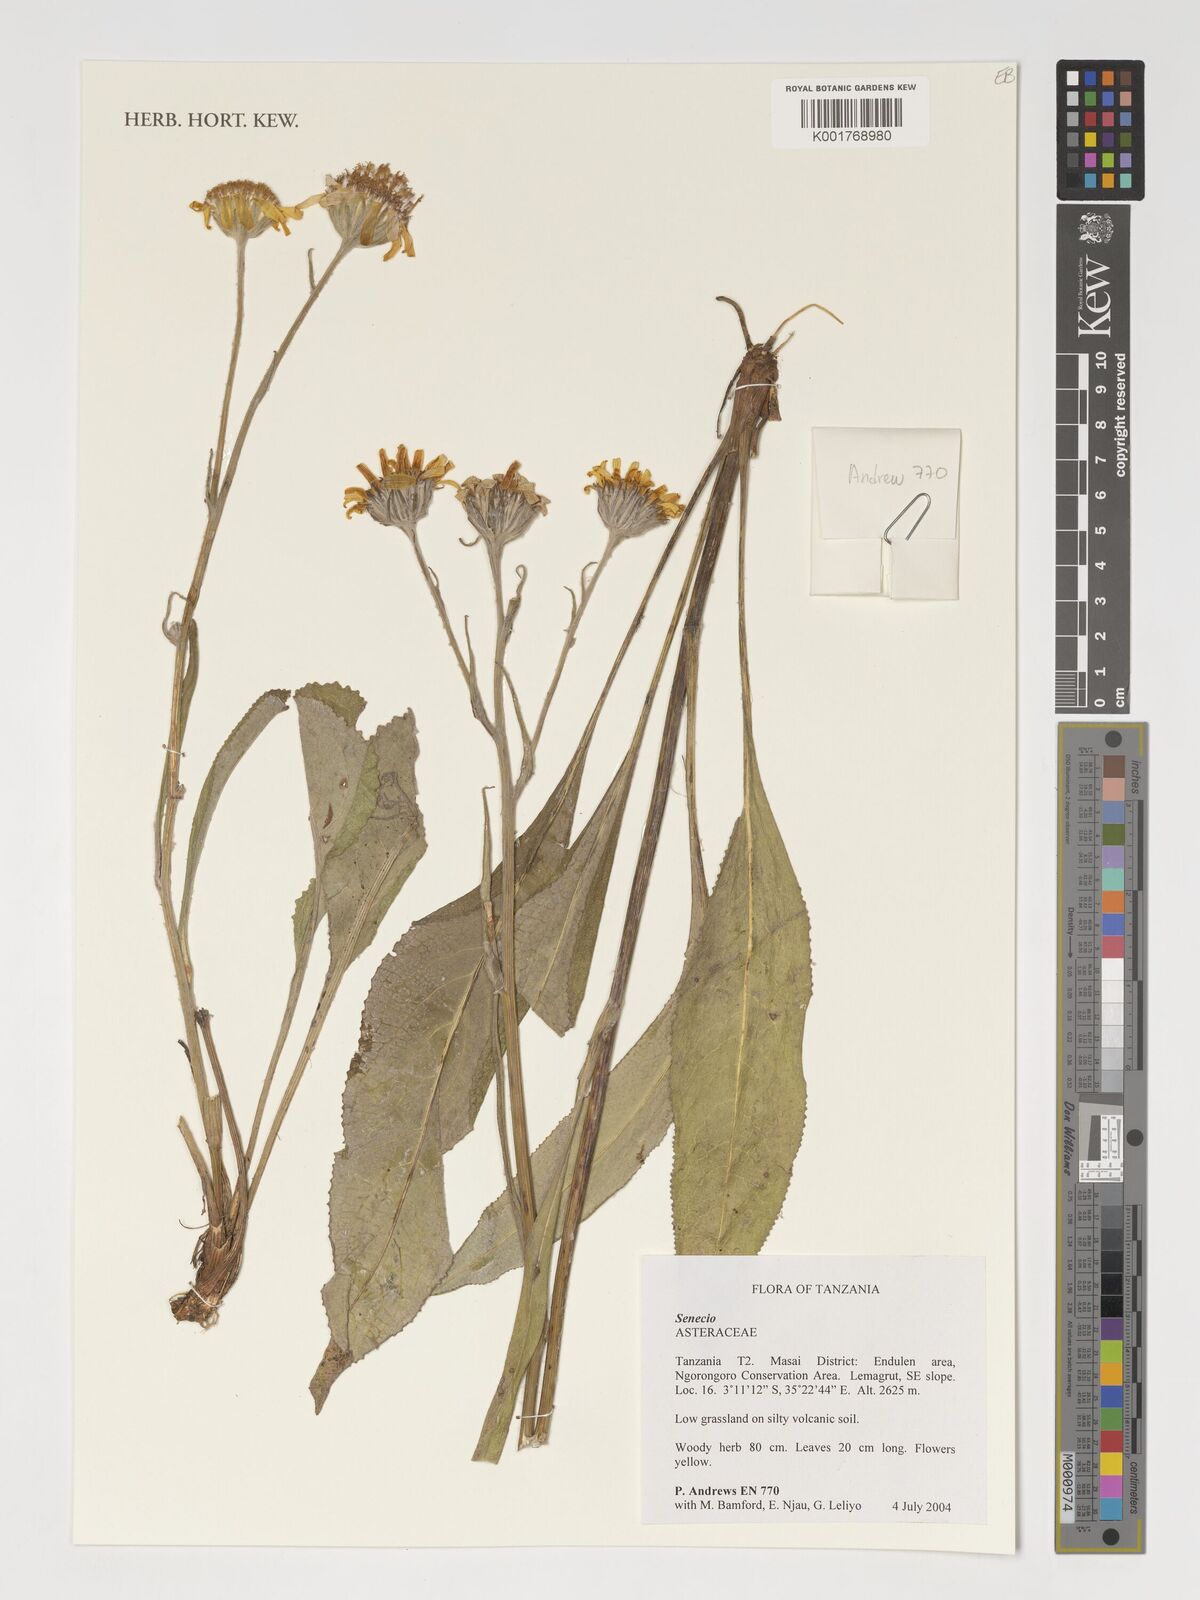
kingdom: Plantae
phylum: Tracheophyta
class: Magnoliopsida
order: Asterales
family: Asteraceae
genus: Senecio
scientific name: Senecio
